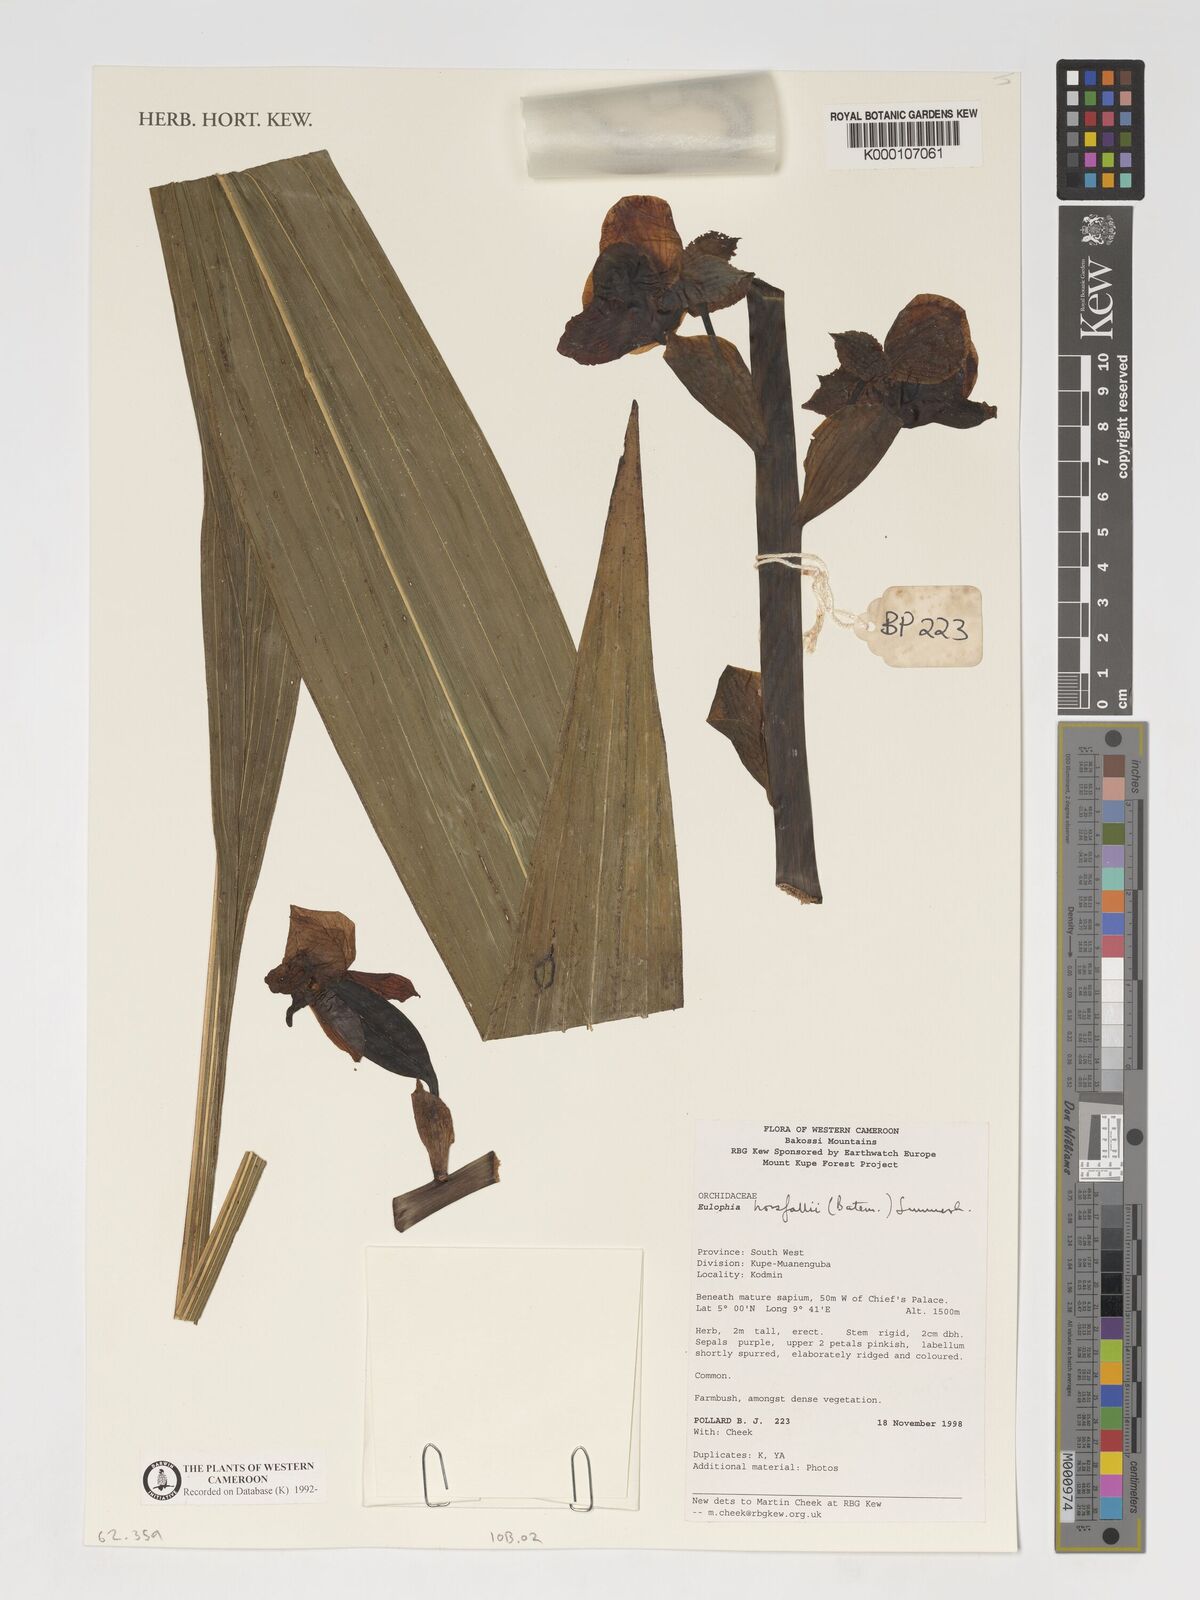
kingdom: Plantae
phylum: Tracheophyta
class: Liliopsida
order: Asparagales
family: Orchidaceae
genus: Eulophia
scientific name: Eulophia horsfallii
